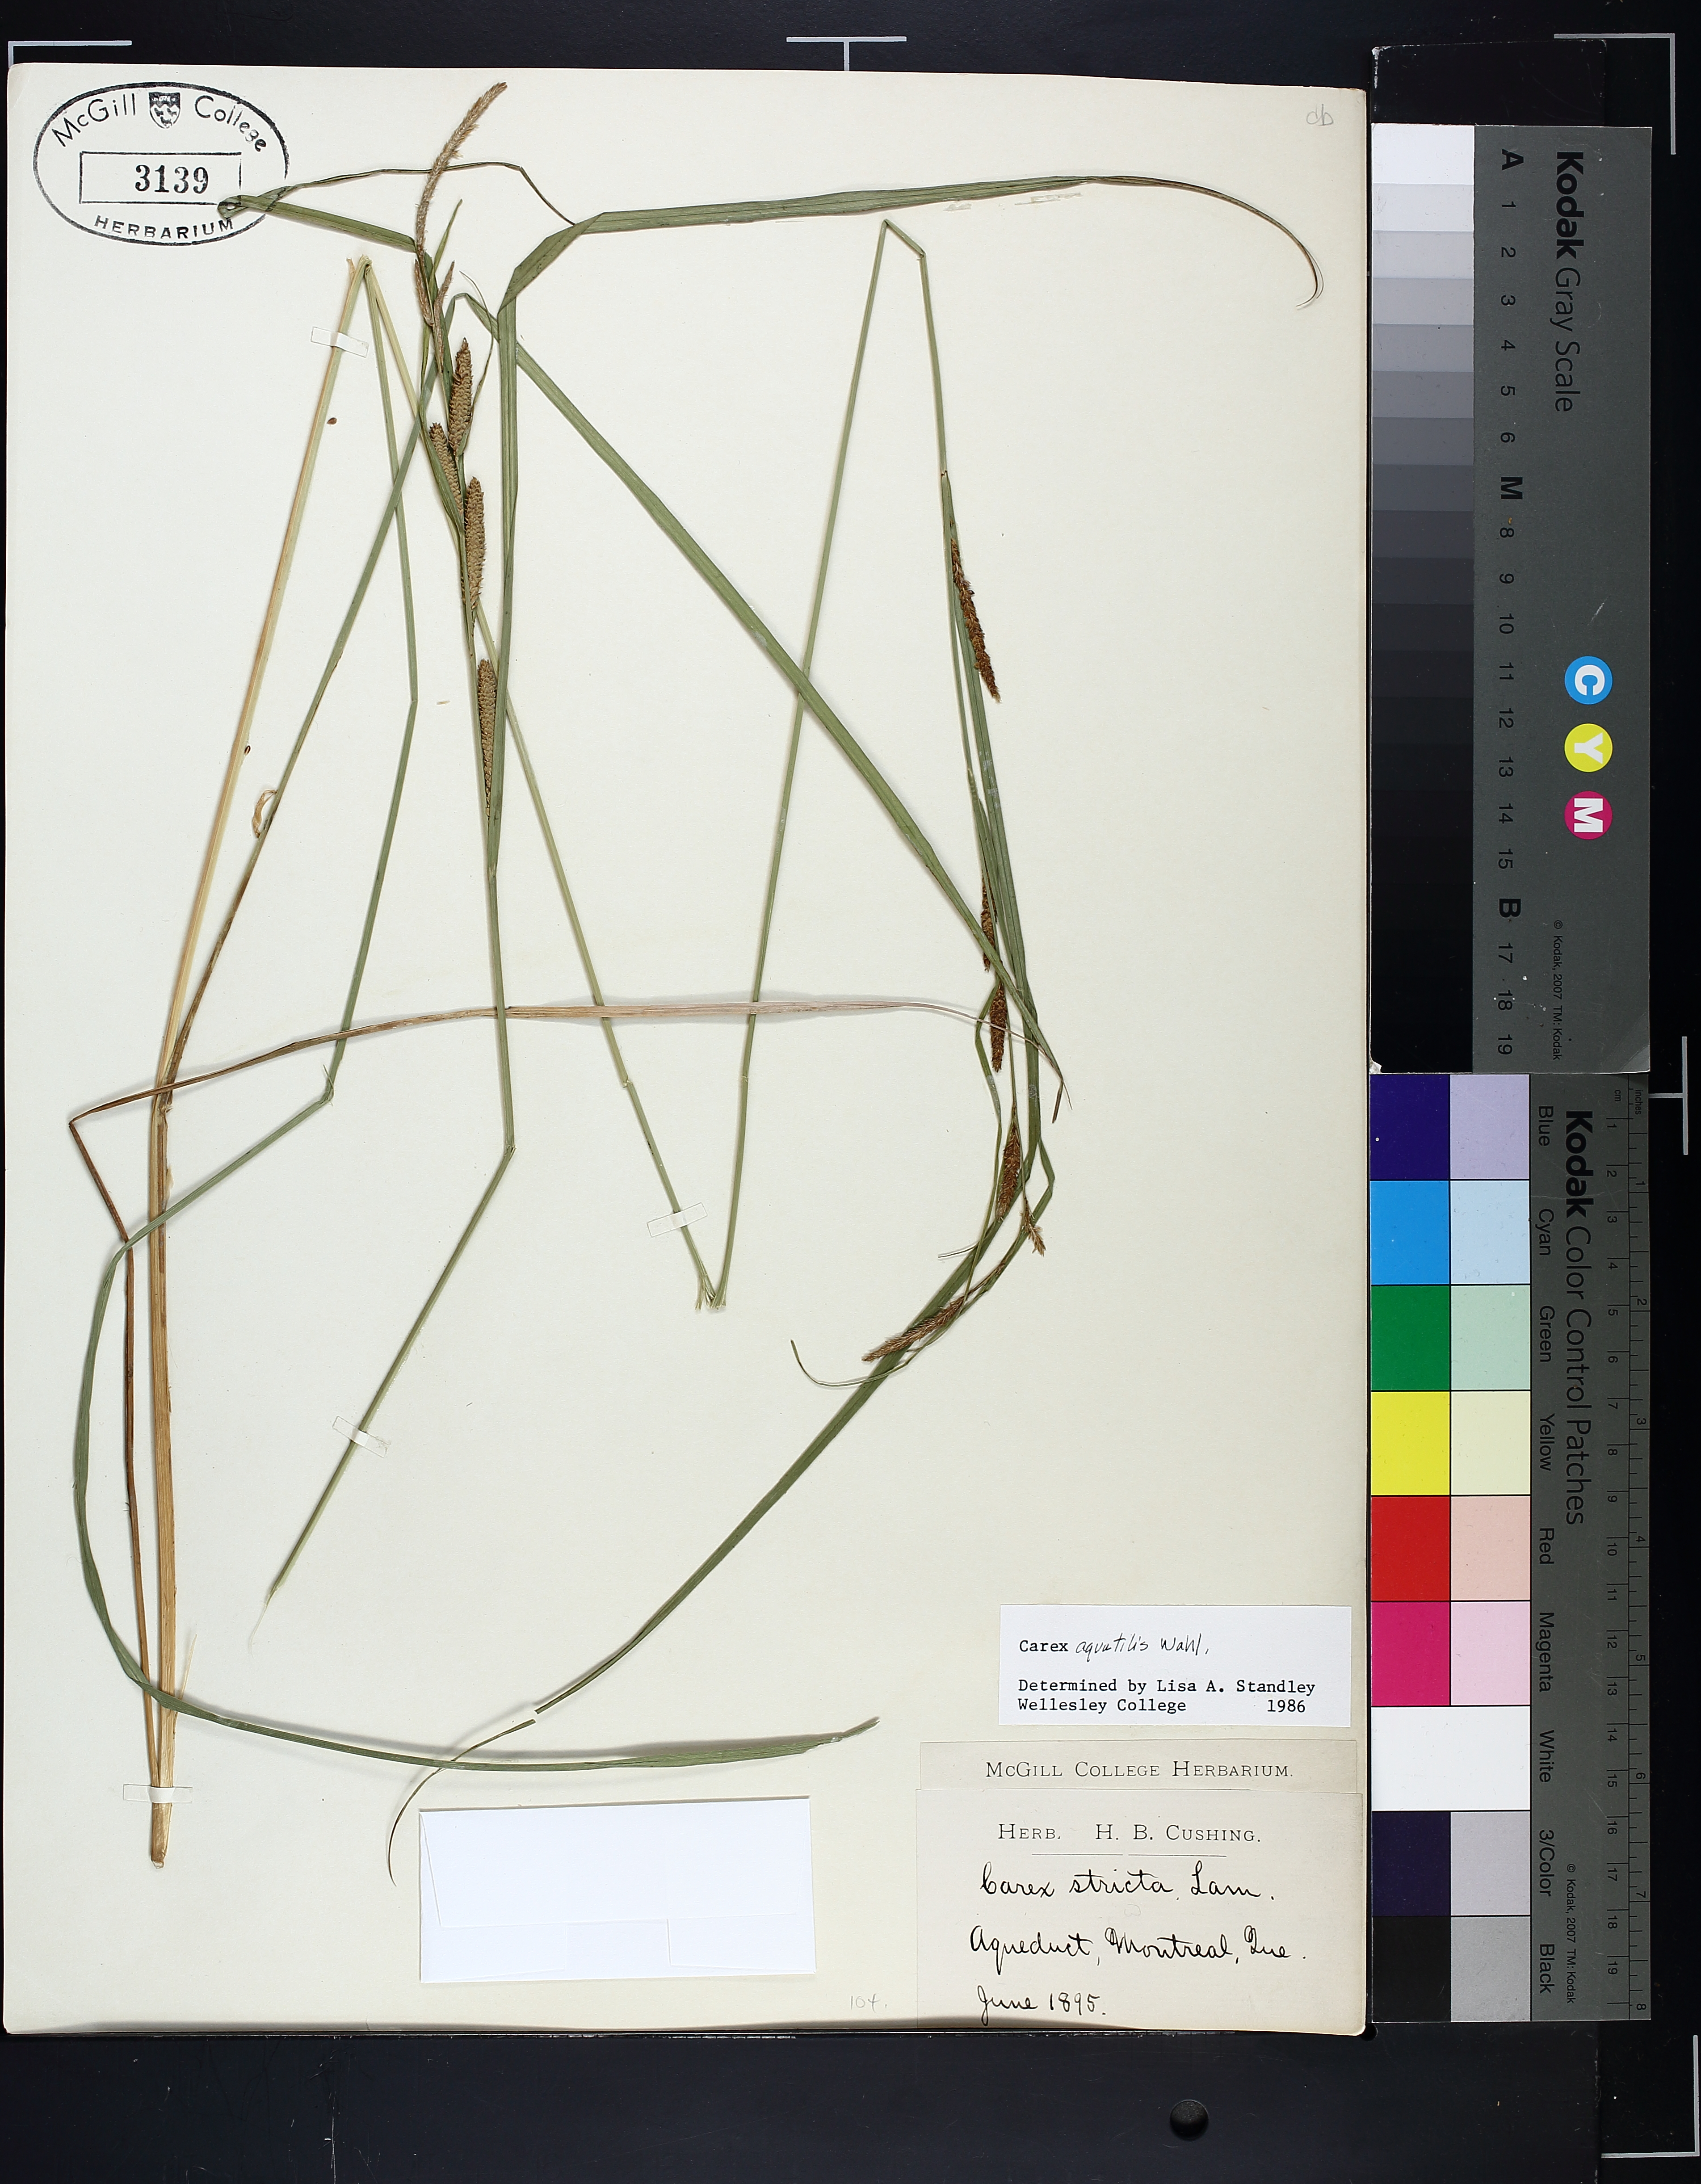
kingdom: Plantae
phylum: Tracheophyta
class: Liliopsida
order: Poales
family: Cyperaceae
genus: Carex
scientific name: Carex aquatilis
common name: Water sedge
